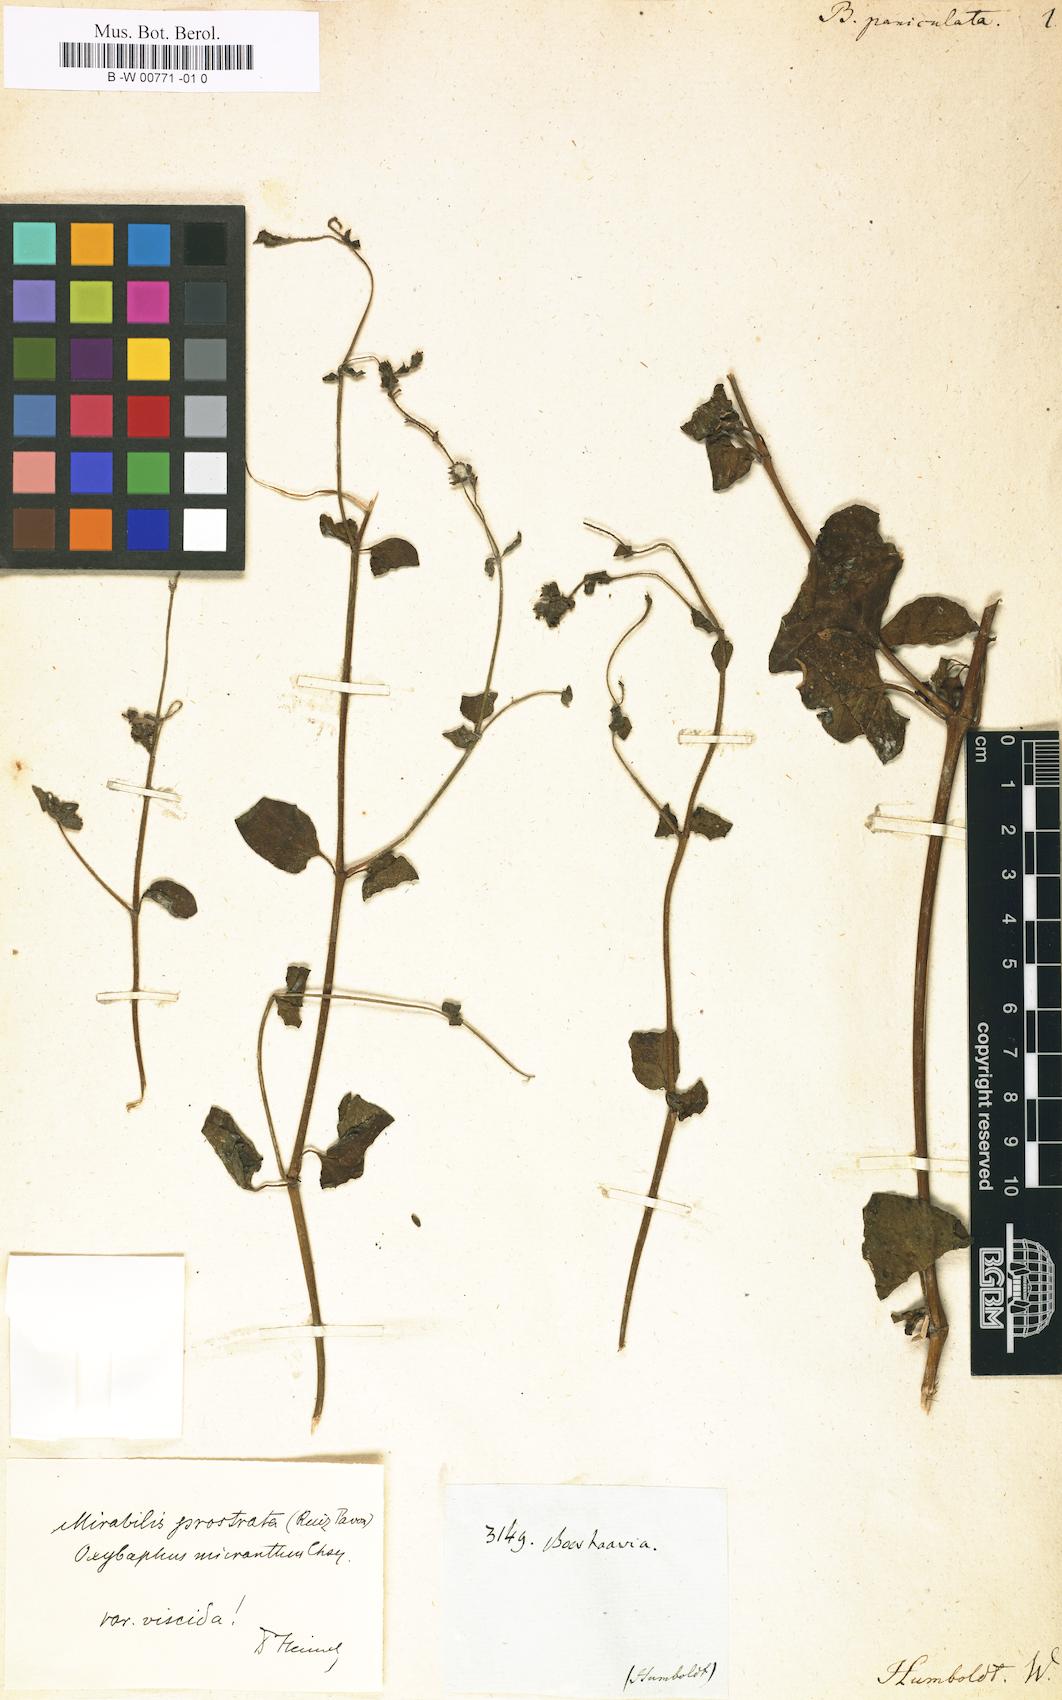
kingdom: Plantae
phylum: Tracheophyta
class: Magnoliopsida
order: Caryophyllales
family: Nyctaginaceae
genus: Boerhavia
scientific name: Boerhavia diffusa
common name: Red spiderling
